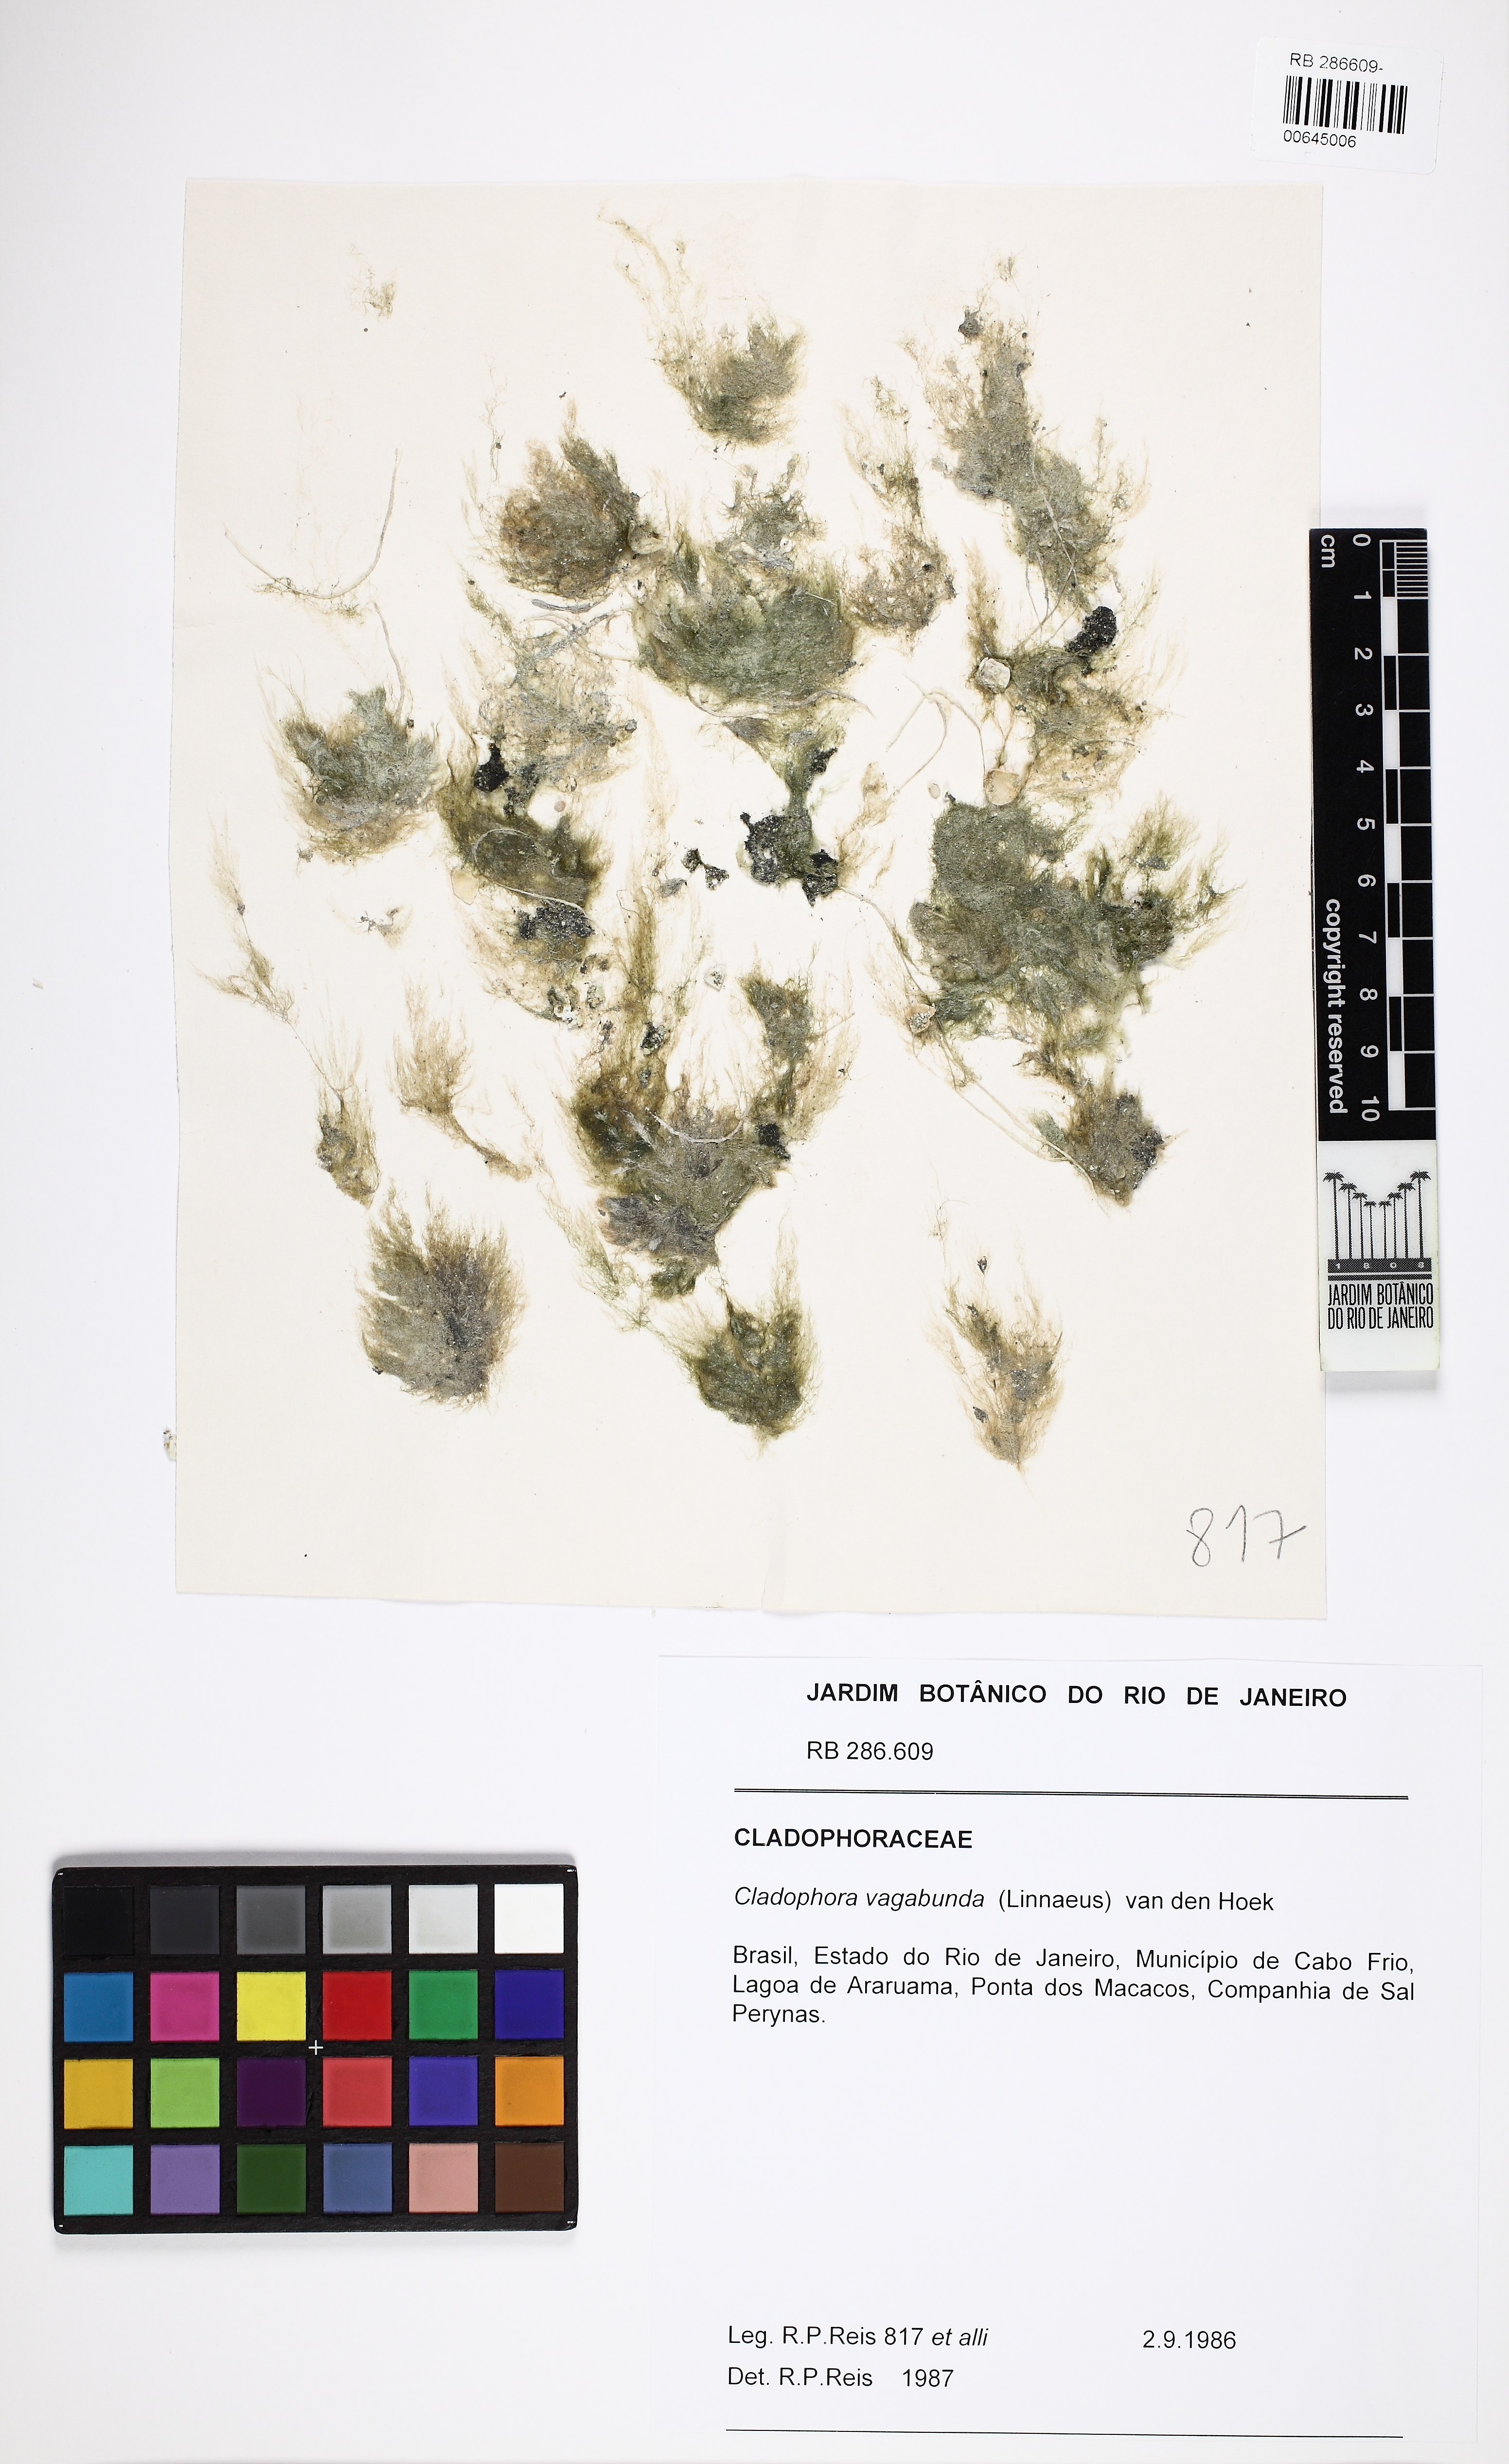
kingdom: Plantae
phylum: Chlorophyta
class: Ulvophyceae
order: Cladophorales
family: Cladophoraceae
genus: Cladophora
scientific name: Cladophora vagabunda
